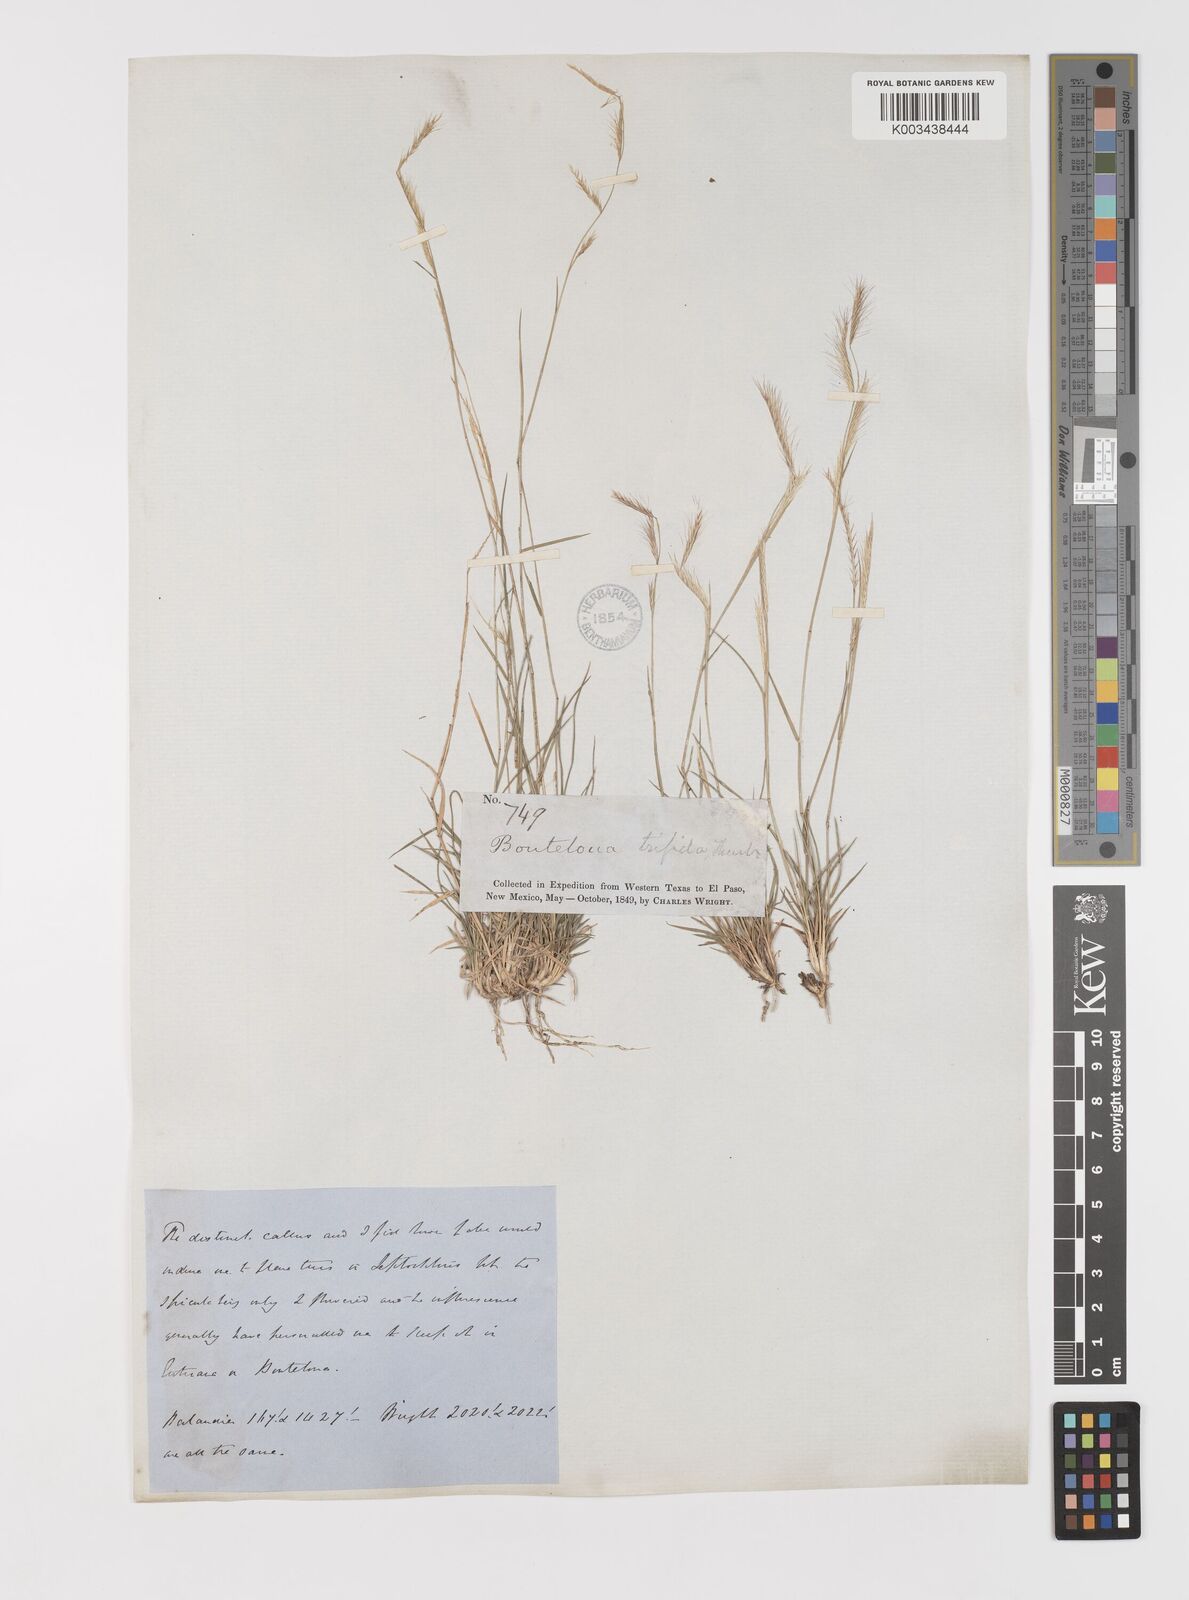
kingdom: Plantae
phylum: Tracheophyta
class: Liliopsida
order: Poales
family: Poaceae
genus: Bouteloua
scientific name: Bouteloua trifida
